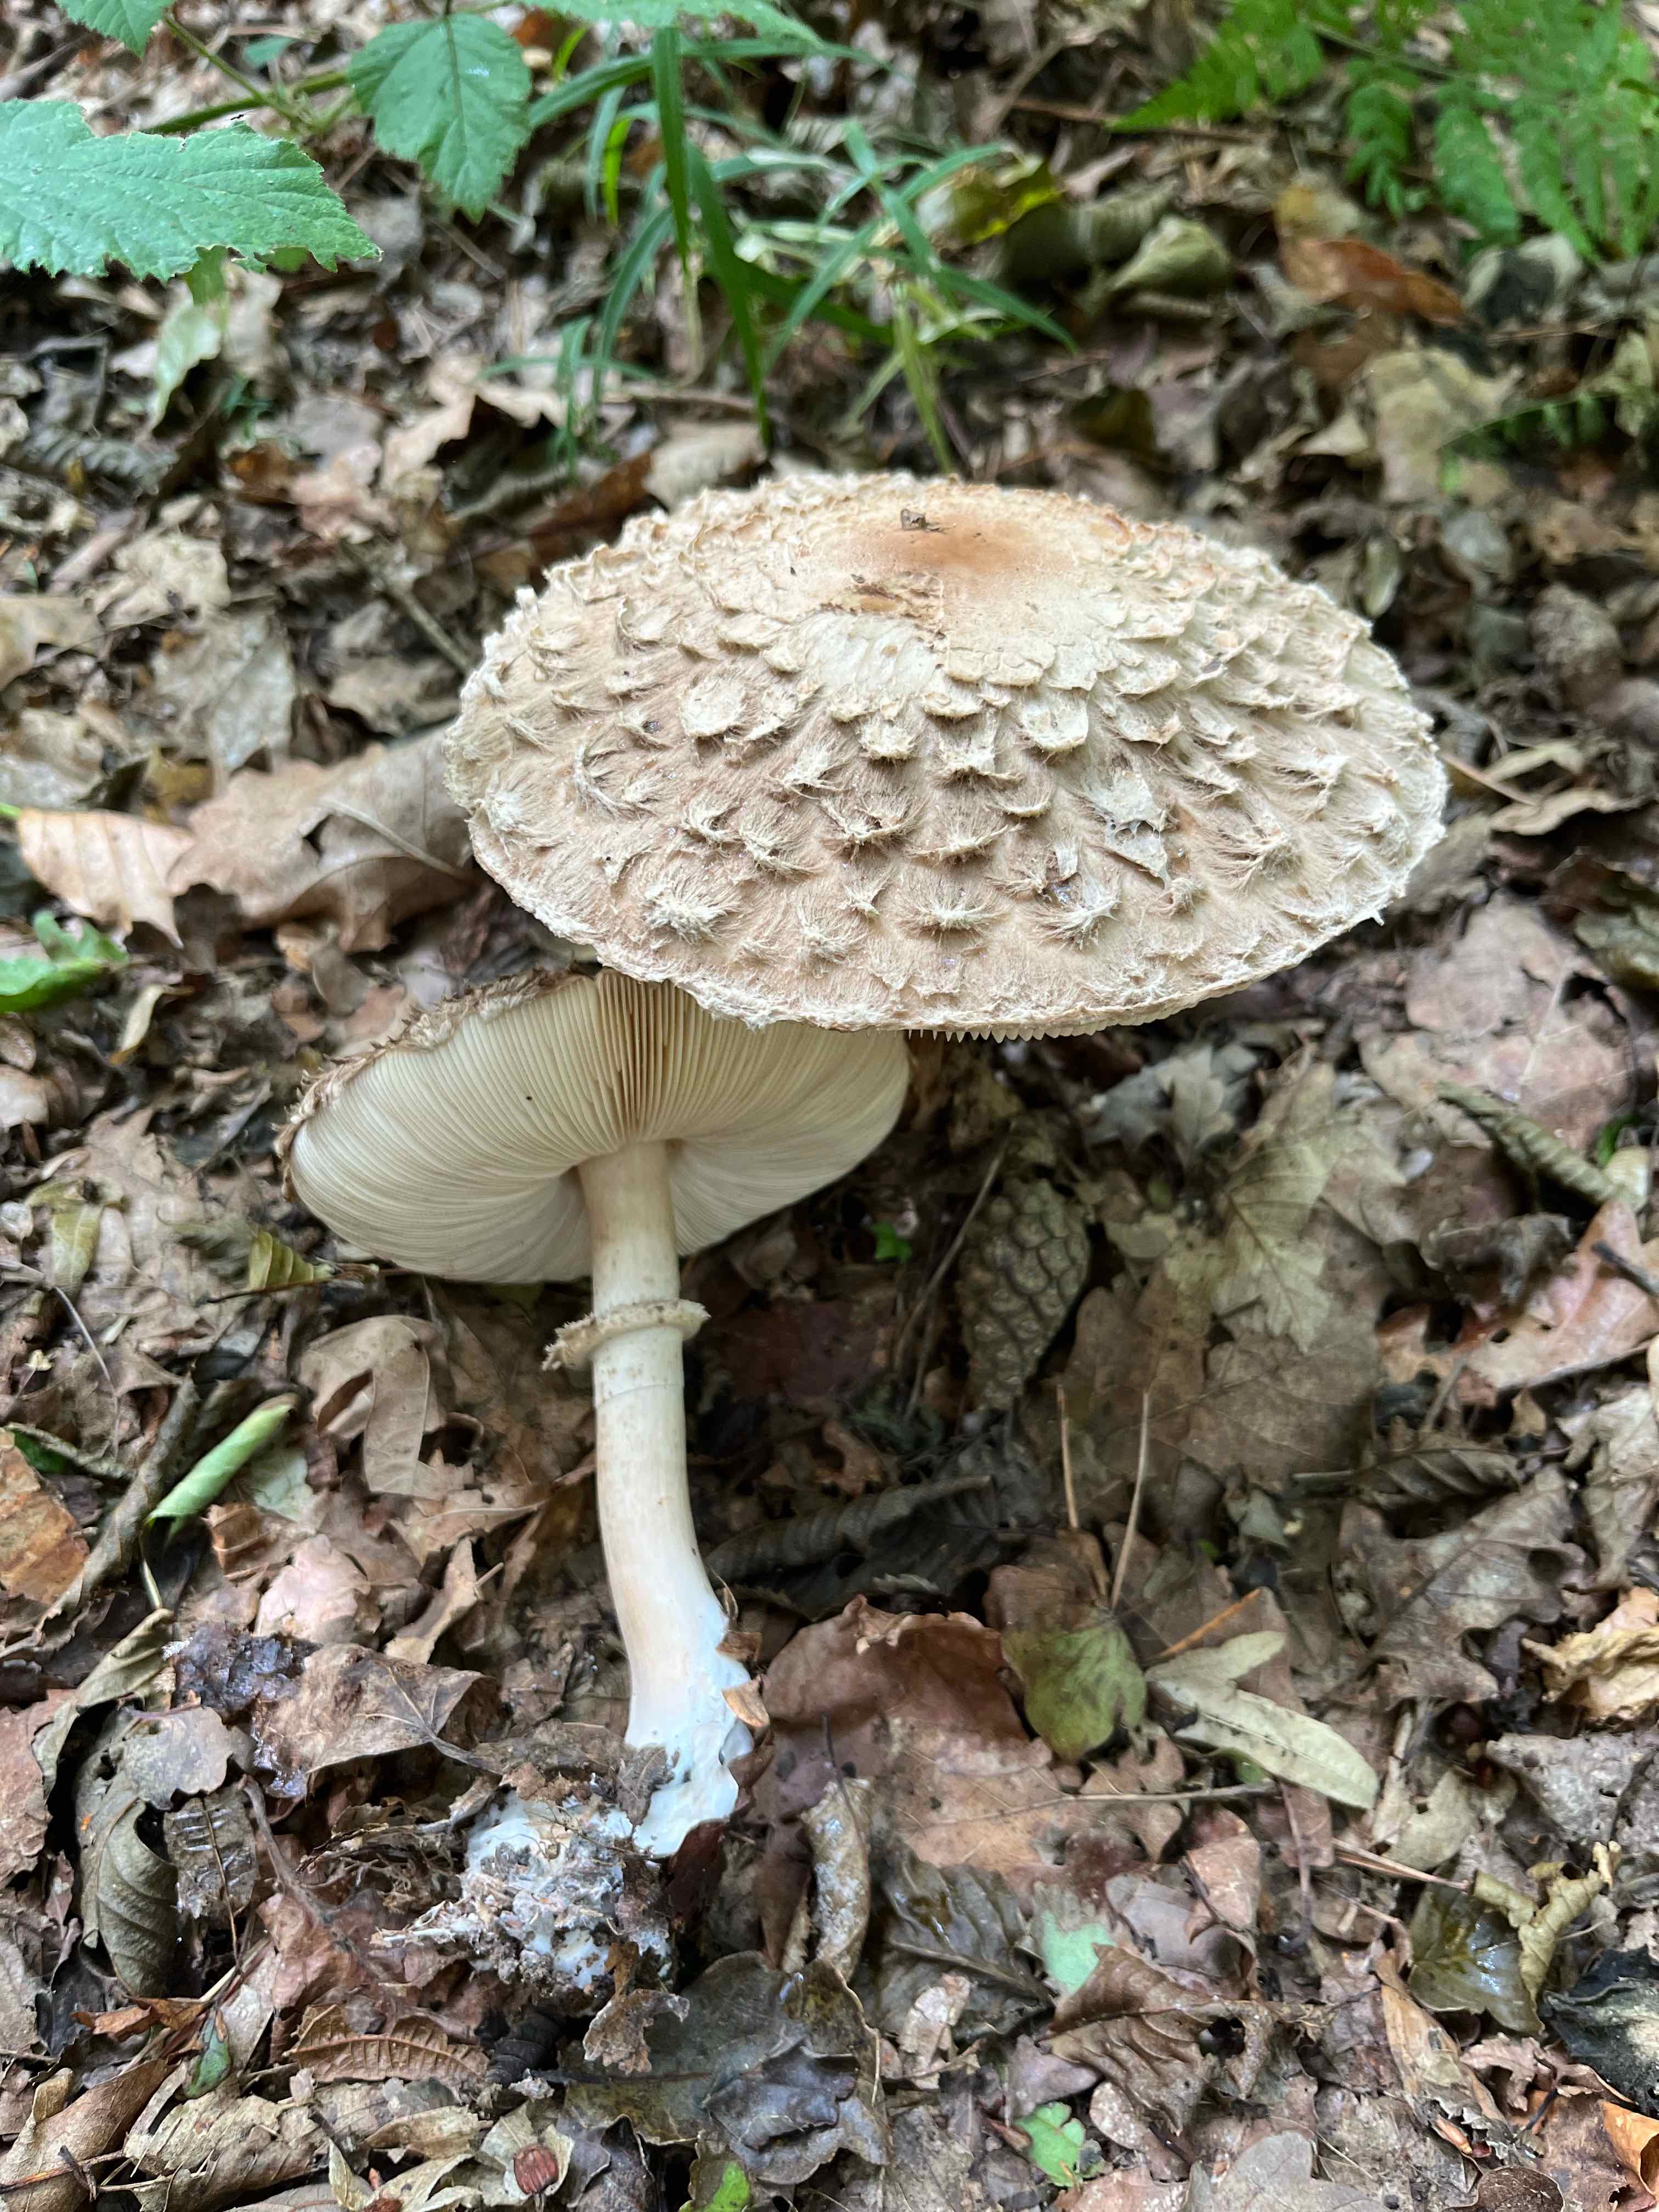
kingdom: Fungi
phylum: Basidiomycota
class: Agaricomycetes
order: Agaricales
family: Agaricaceae
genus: Chlorophyllum
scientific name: Chlorophyllum olivieri
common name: almindelig rabarberhat
